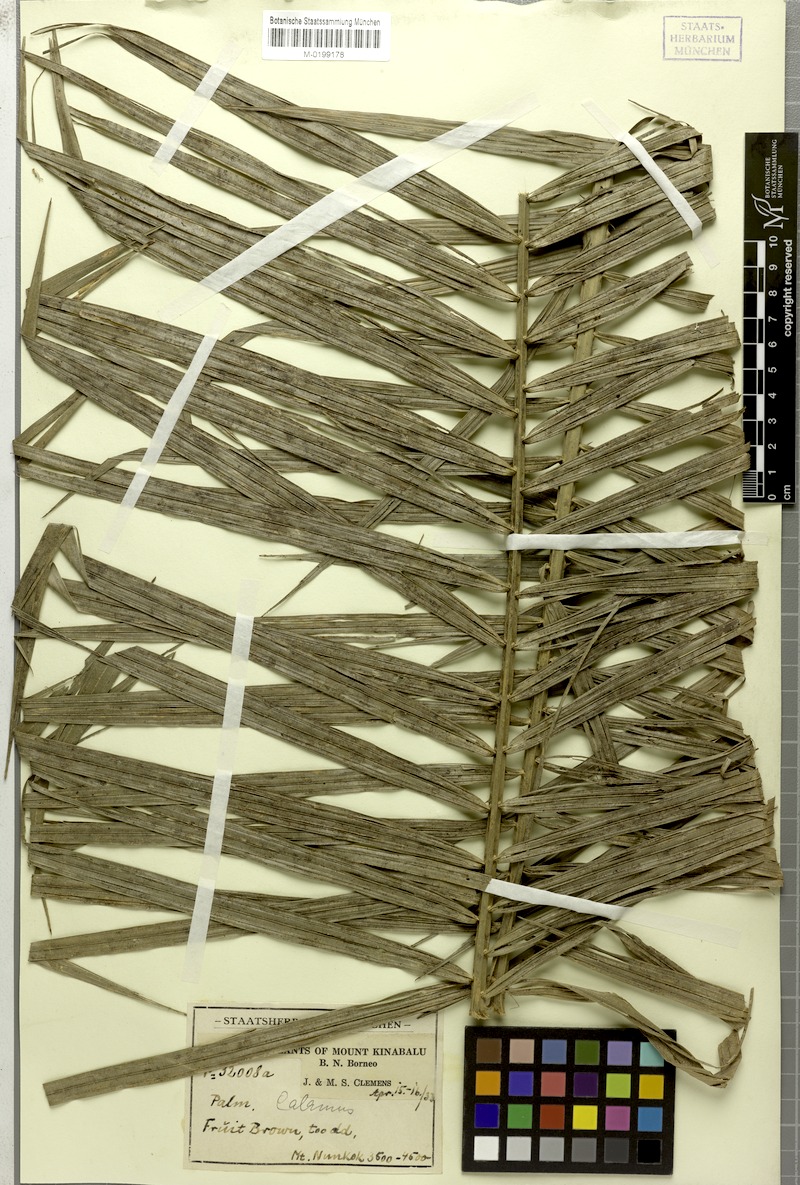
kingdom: Plantae
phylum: Tracheophyta
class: Liliopsida
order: Arecales
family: Arecaceae
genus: Calamus
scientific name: Calamus
